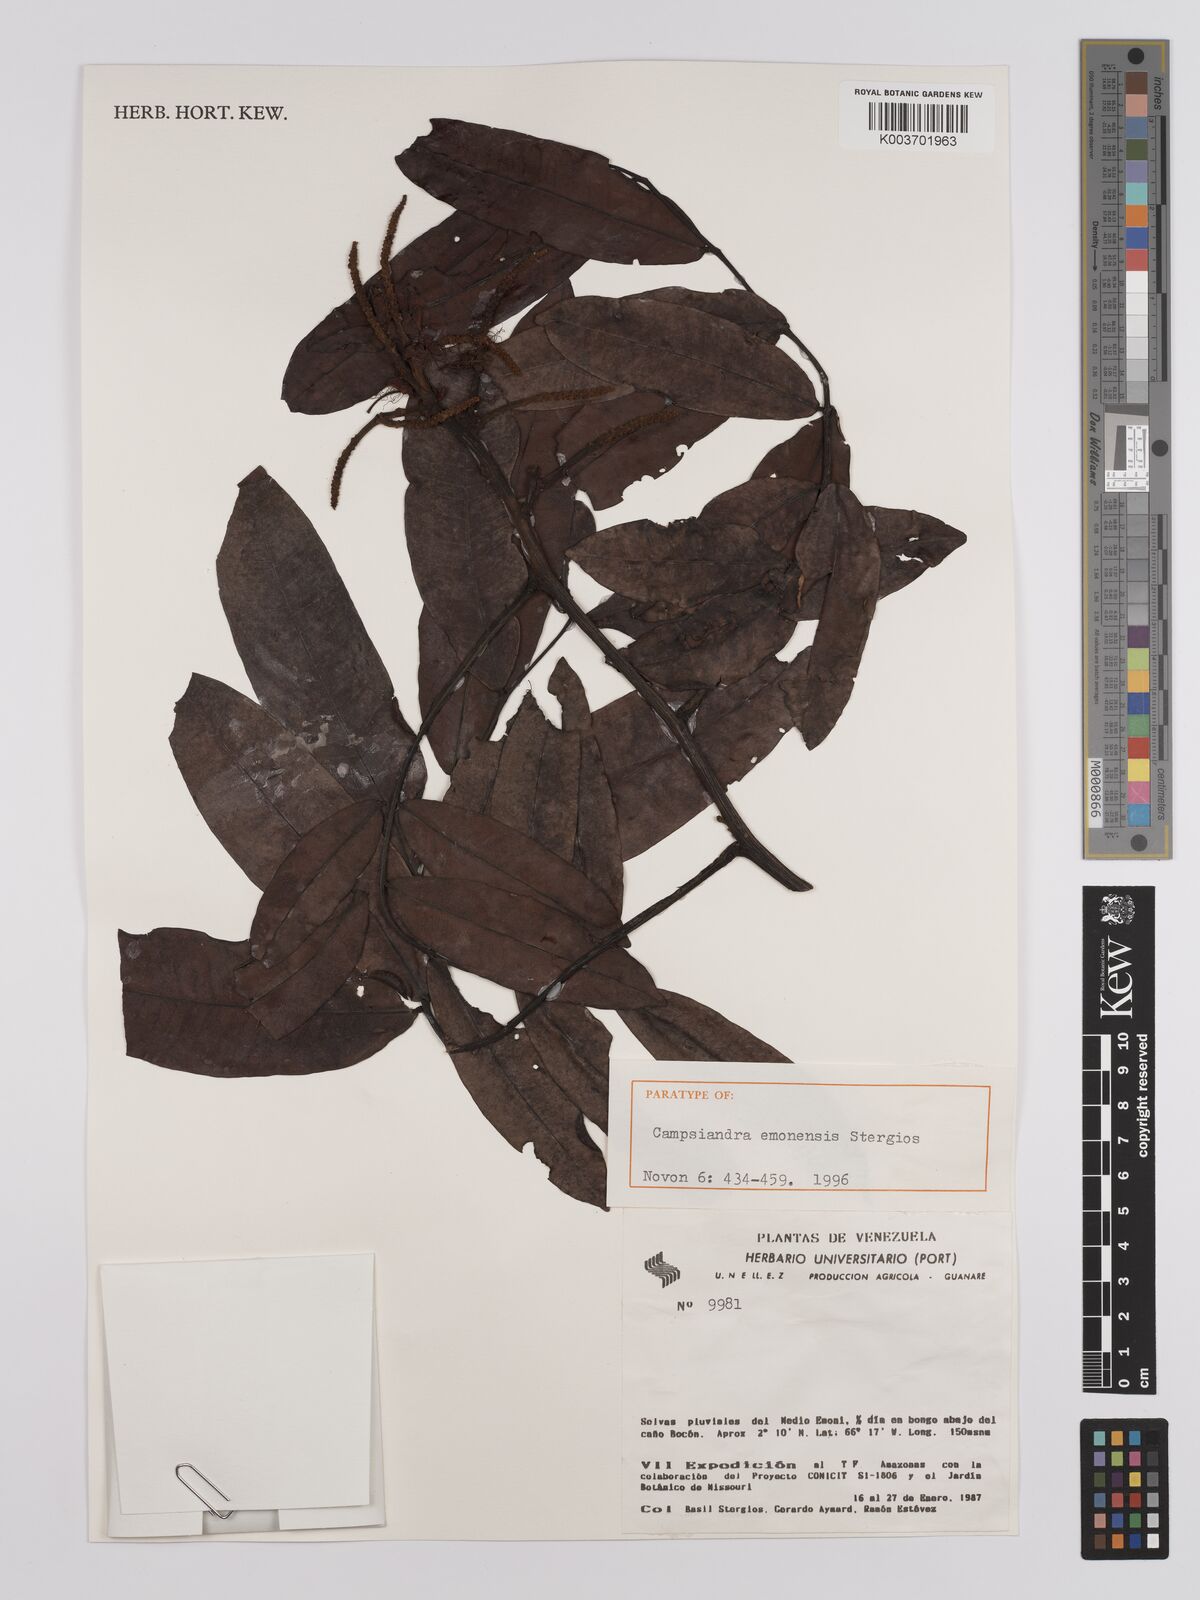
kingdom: Plantae
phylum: Tracheophyta
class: Magnoliopsida
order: Fabales
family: Fabaceae
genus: Campsiandra
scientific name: Campsiandra emonensis
